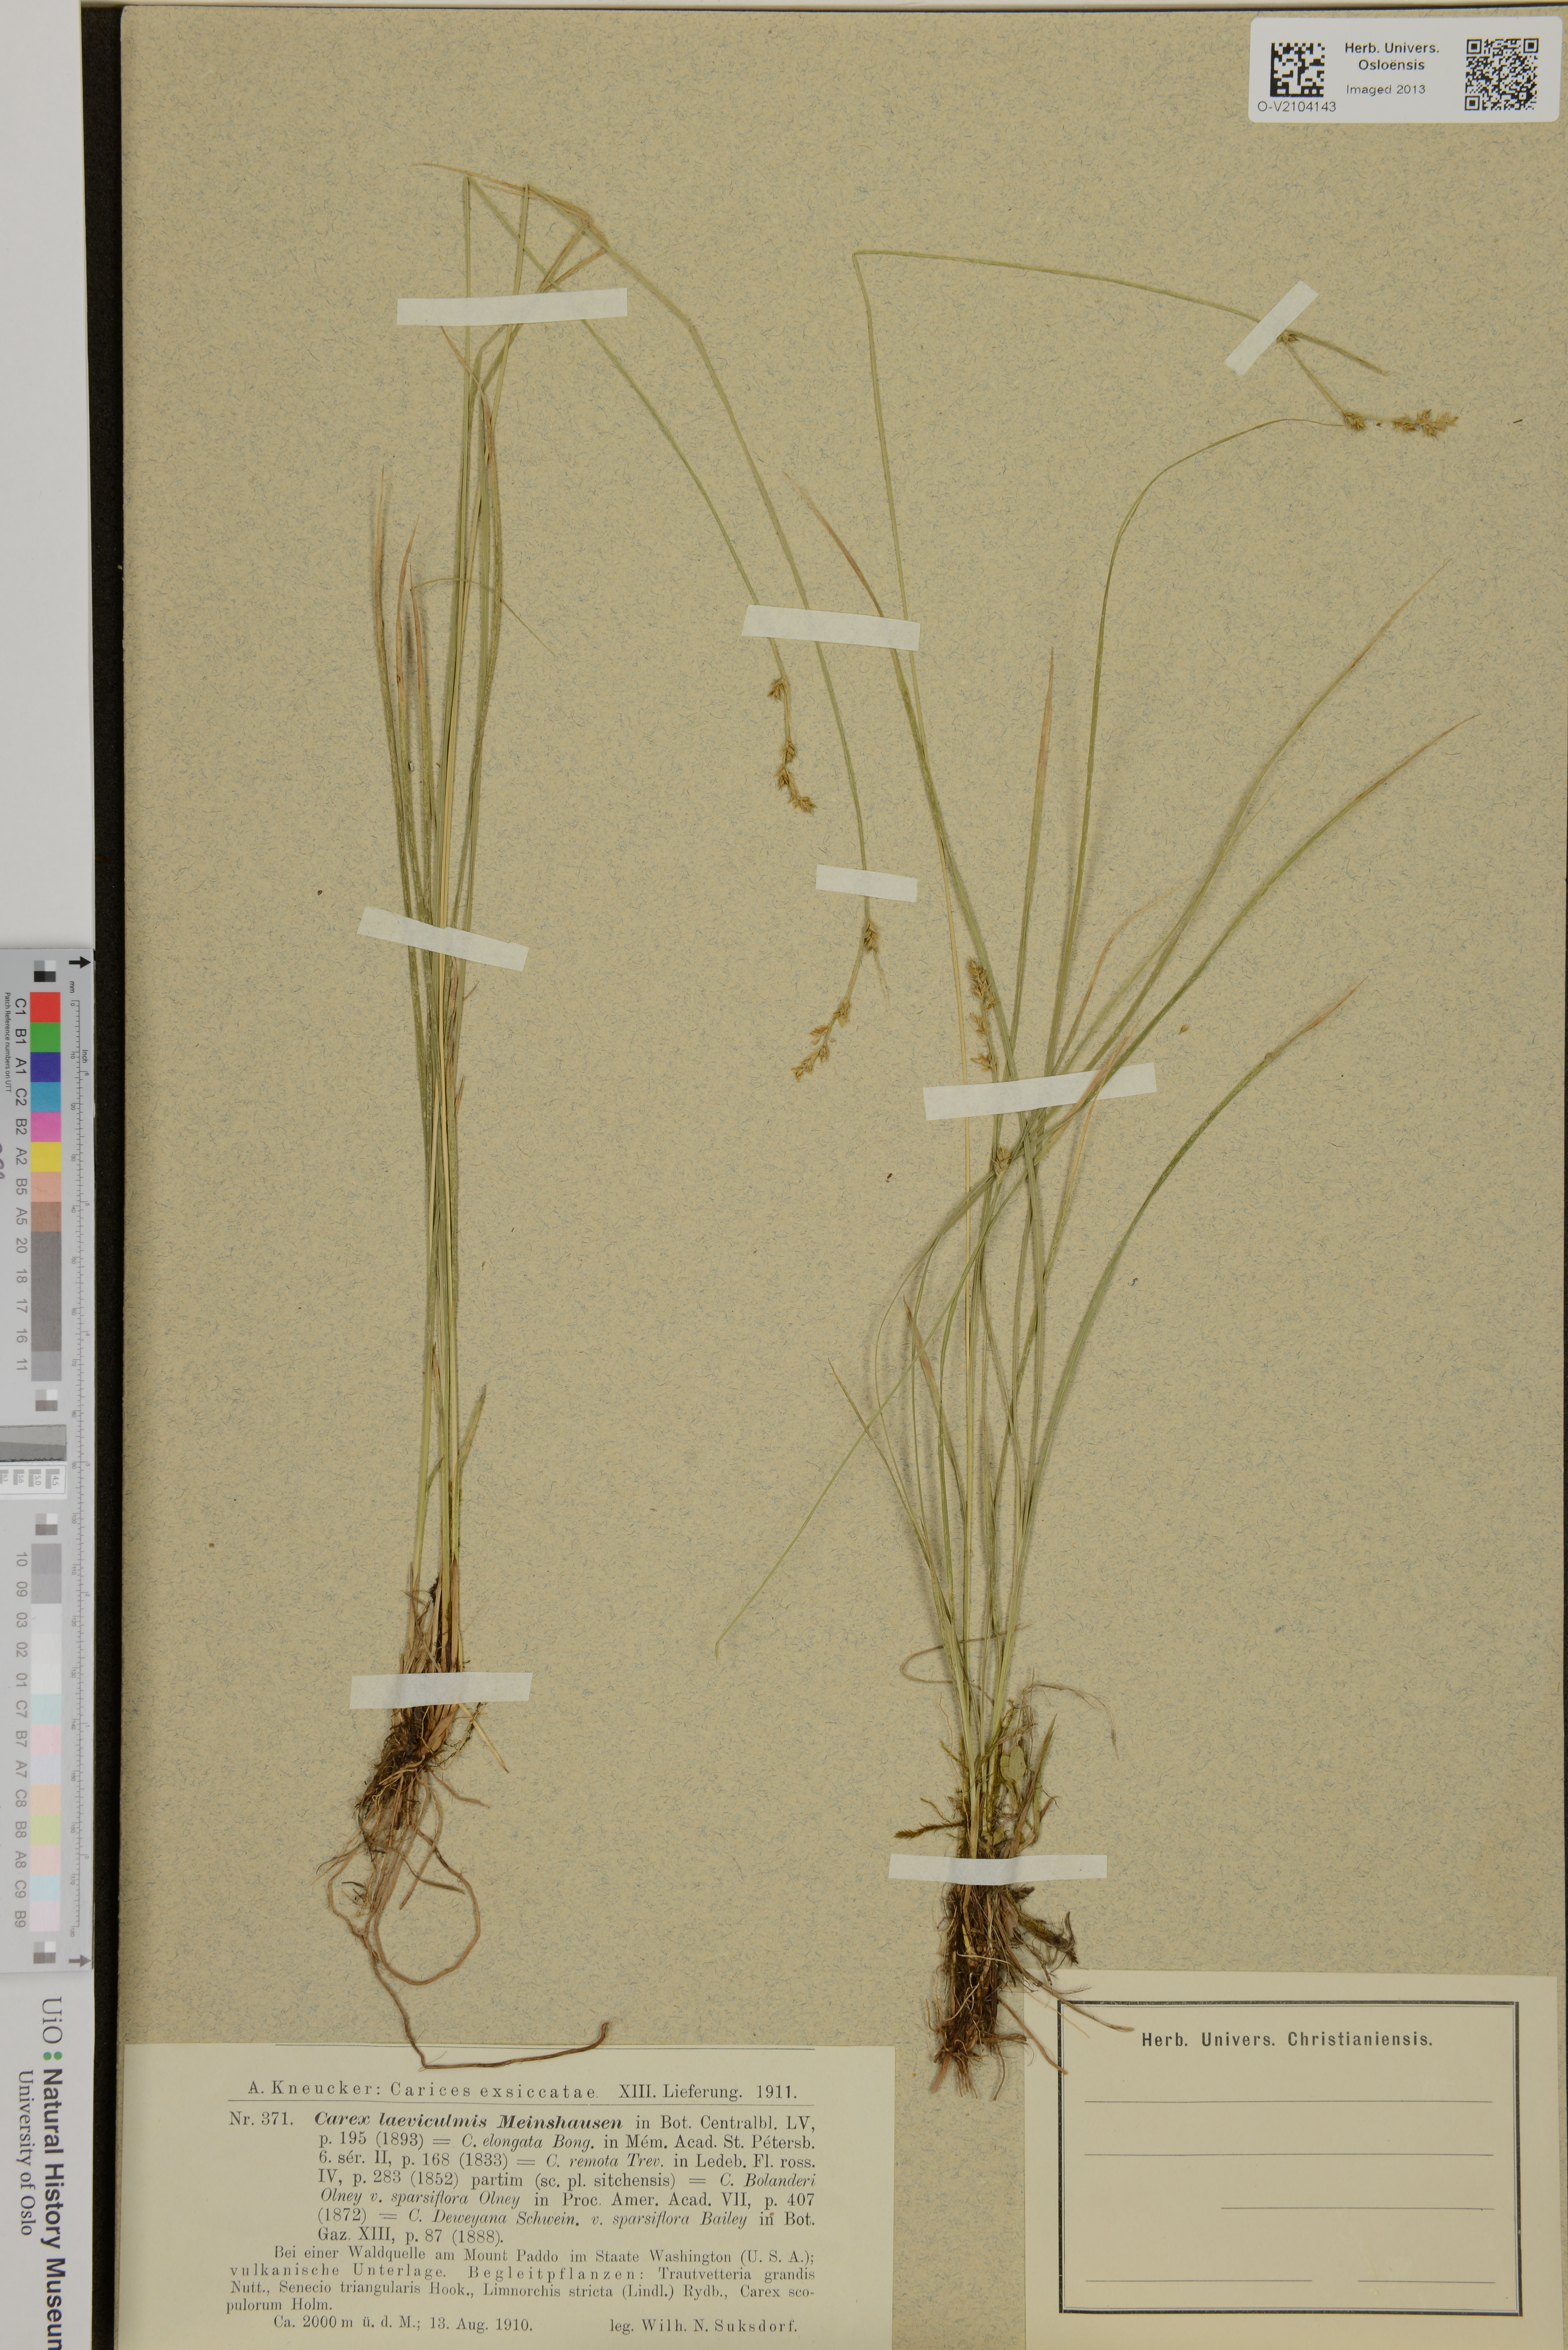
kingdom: Plantae
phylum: Tracheophyta
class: Liliopsida
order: Poales
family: Cyperaceae
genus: Carex
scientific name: Carex kreczetoviczii
